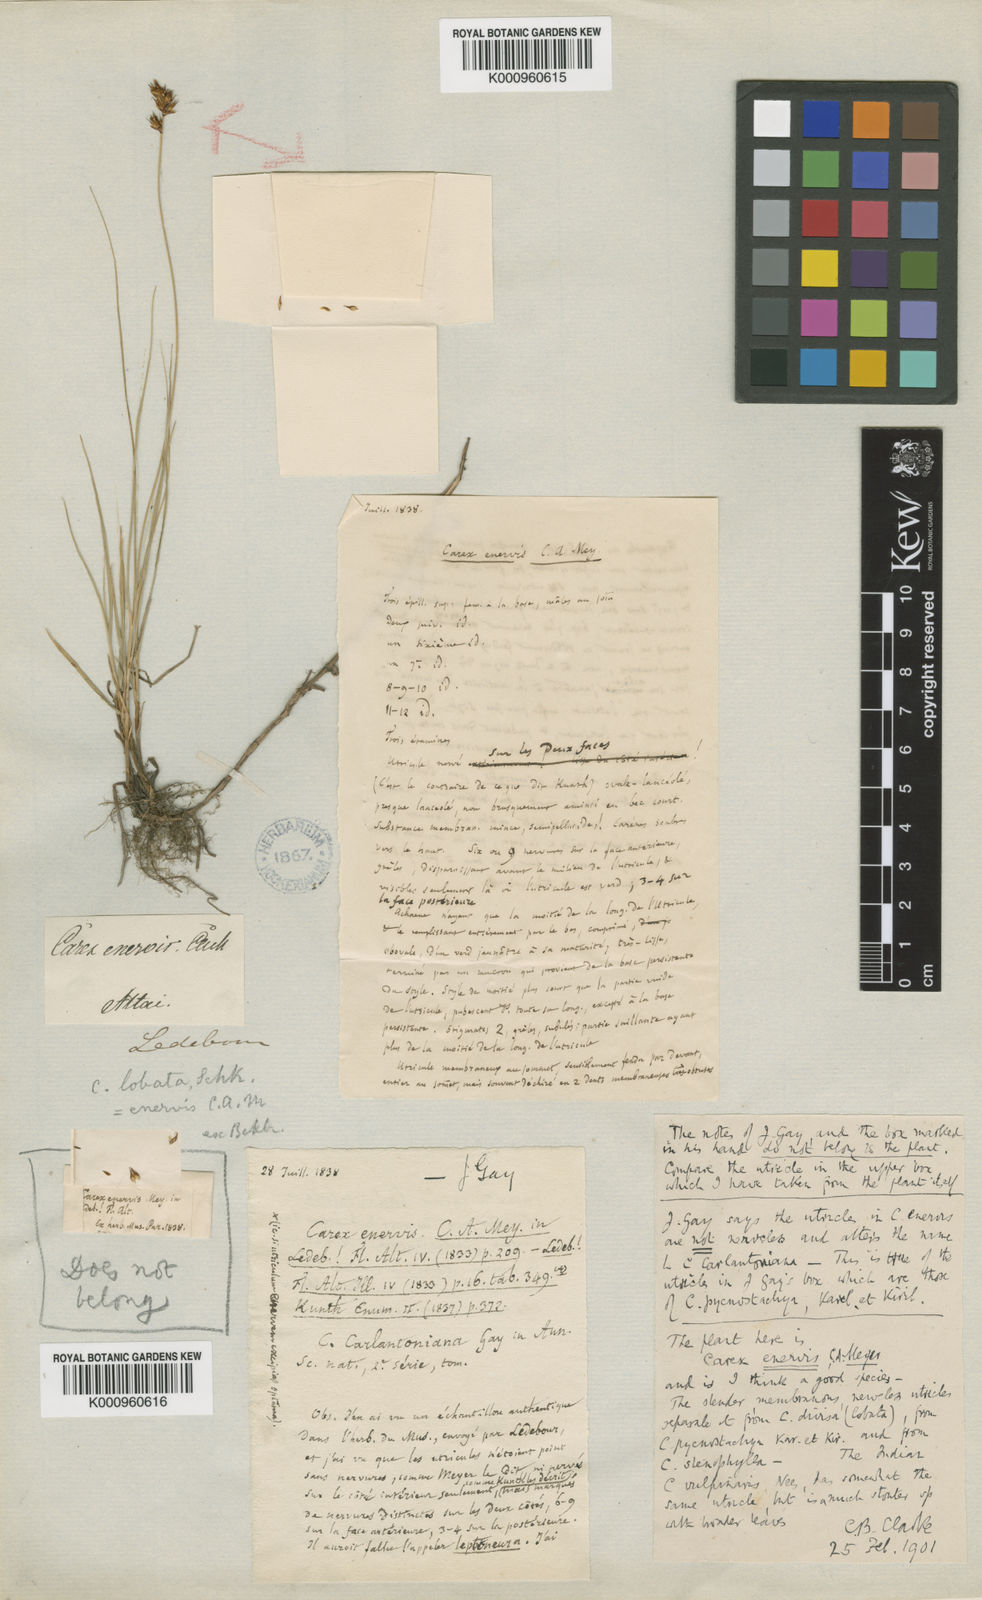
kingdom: Plantae
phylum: Tracheophyta
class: Liliopsida
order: Poales
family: Cyperaceae
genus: Carex
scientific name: Carex stenophylla
